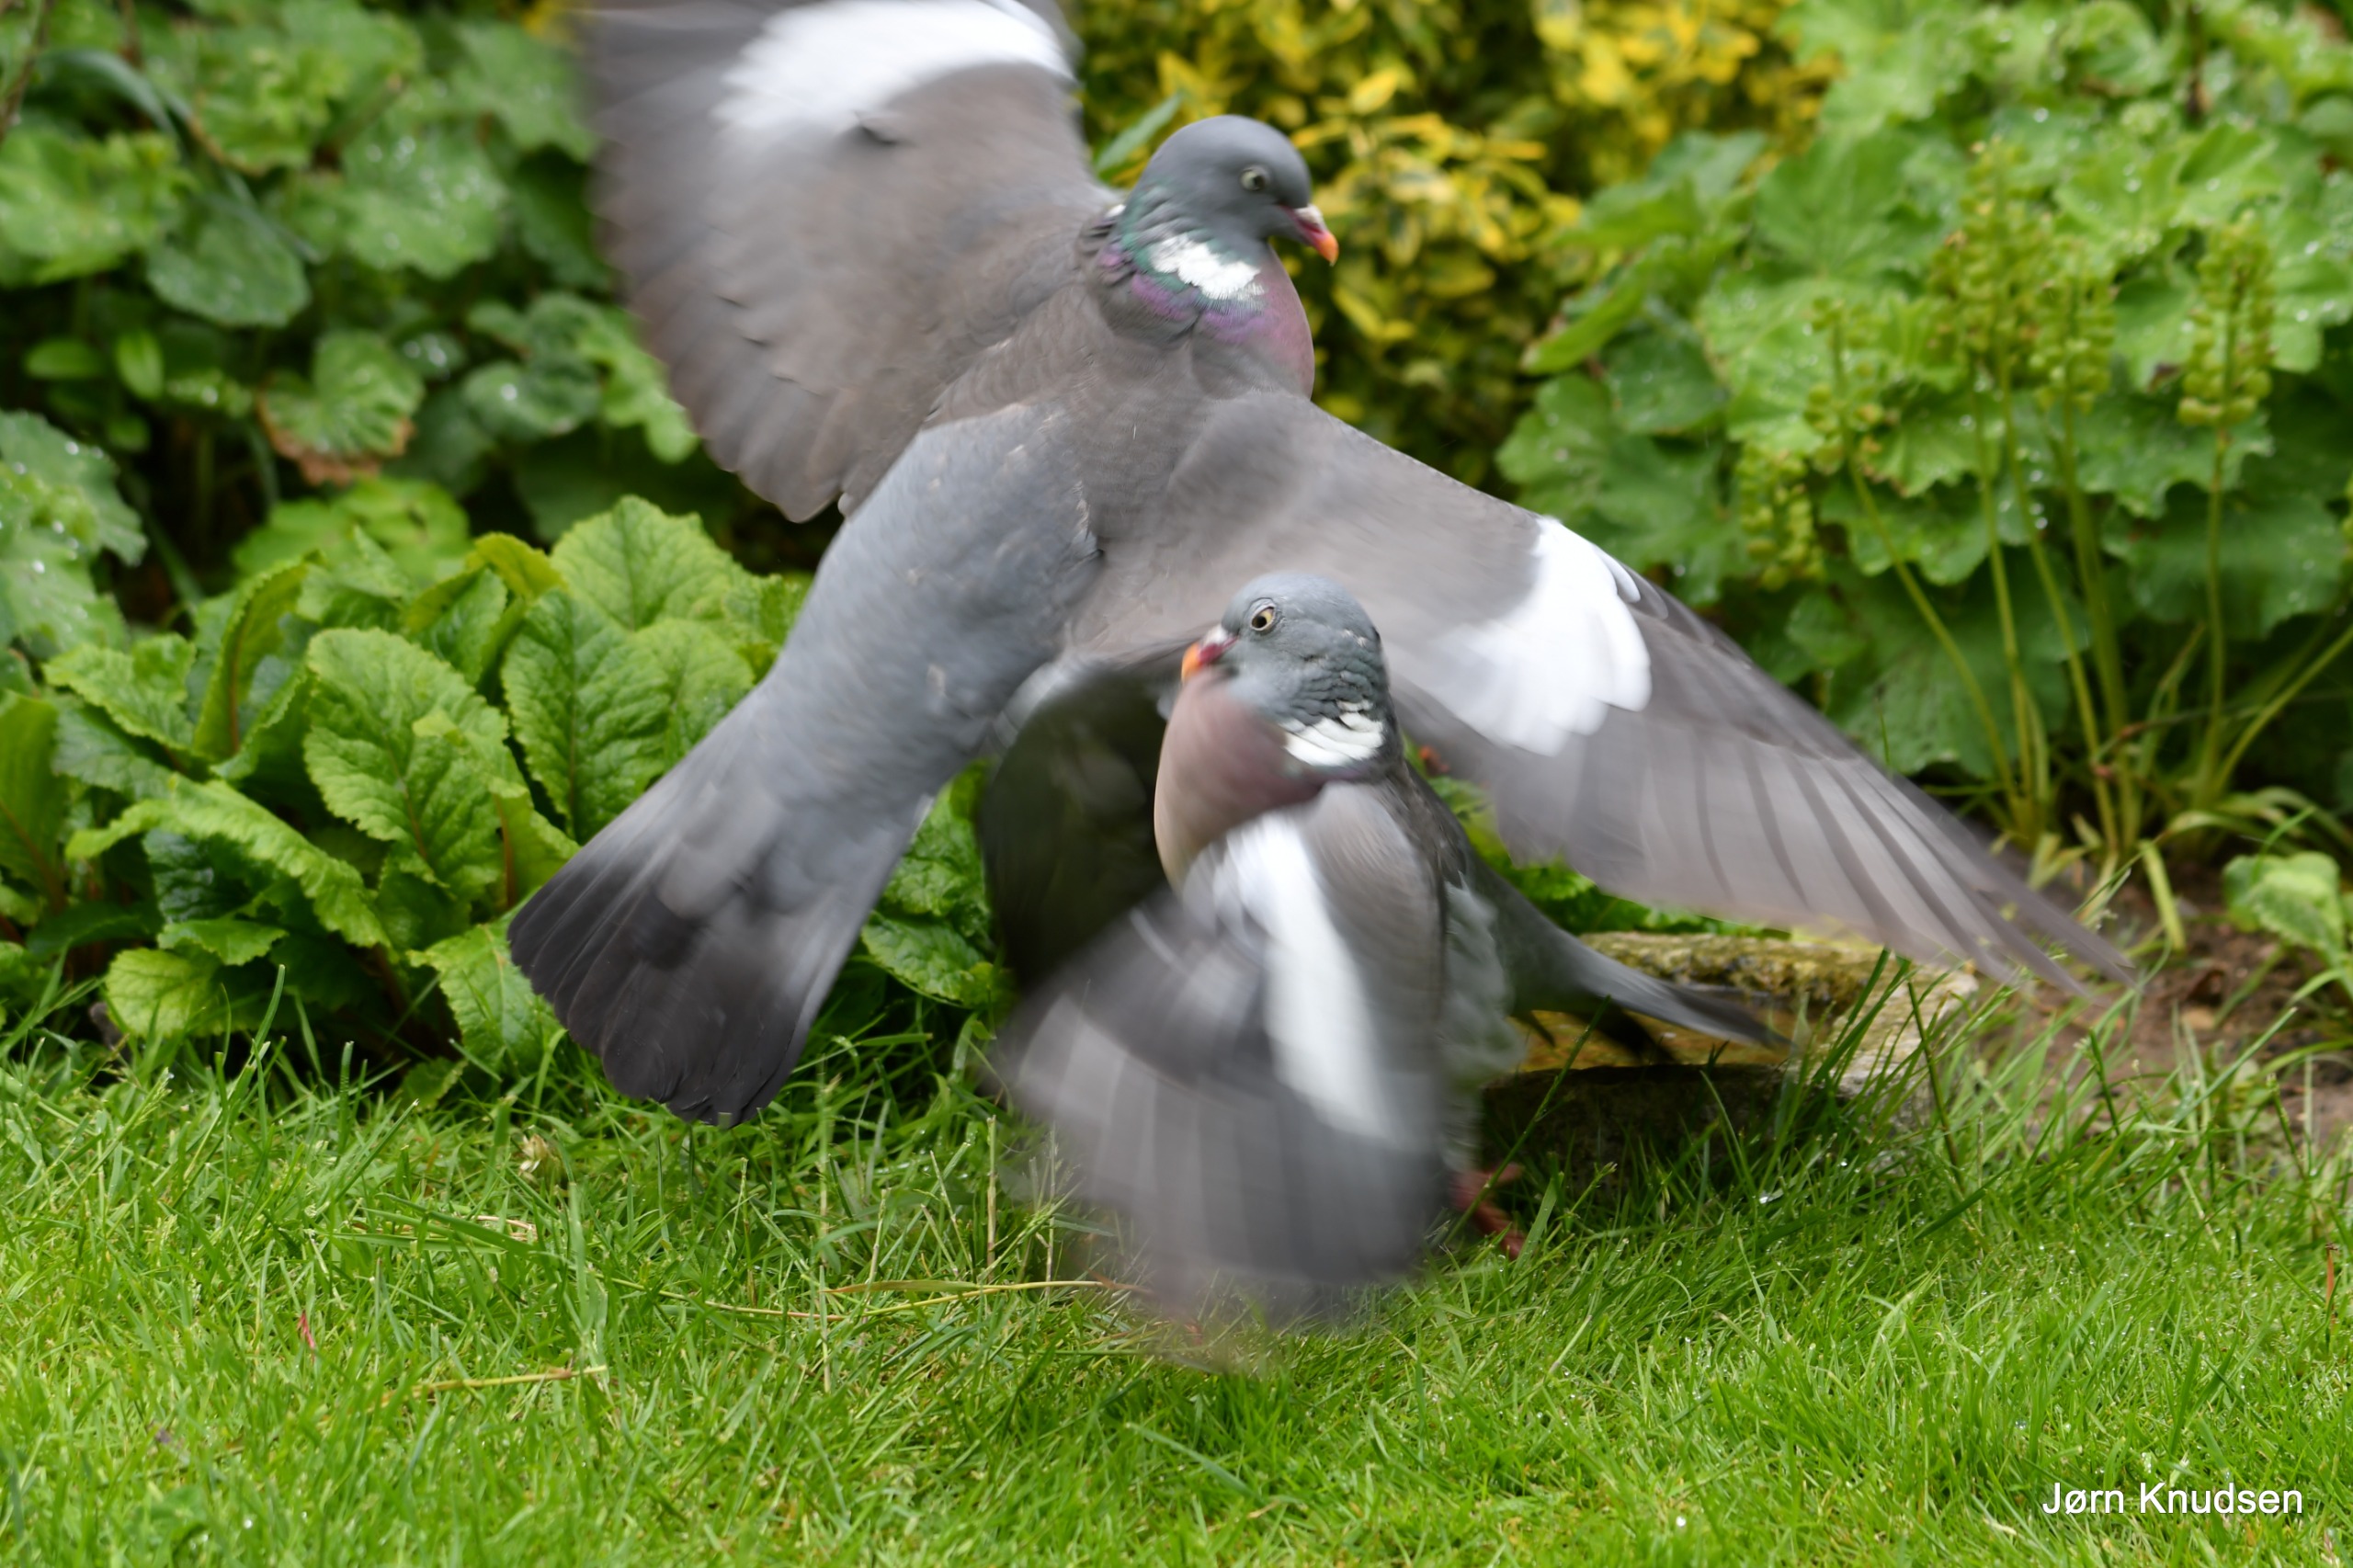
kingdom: Animalia
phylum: Chordata
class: Aves
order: Columbiformes
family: Columbidae
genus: Columba
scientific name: Columba palumbus
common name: Ringdue
